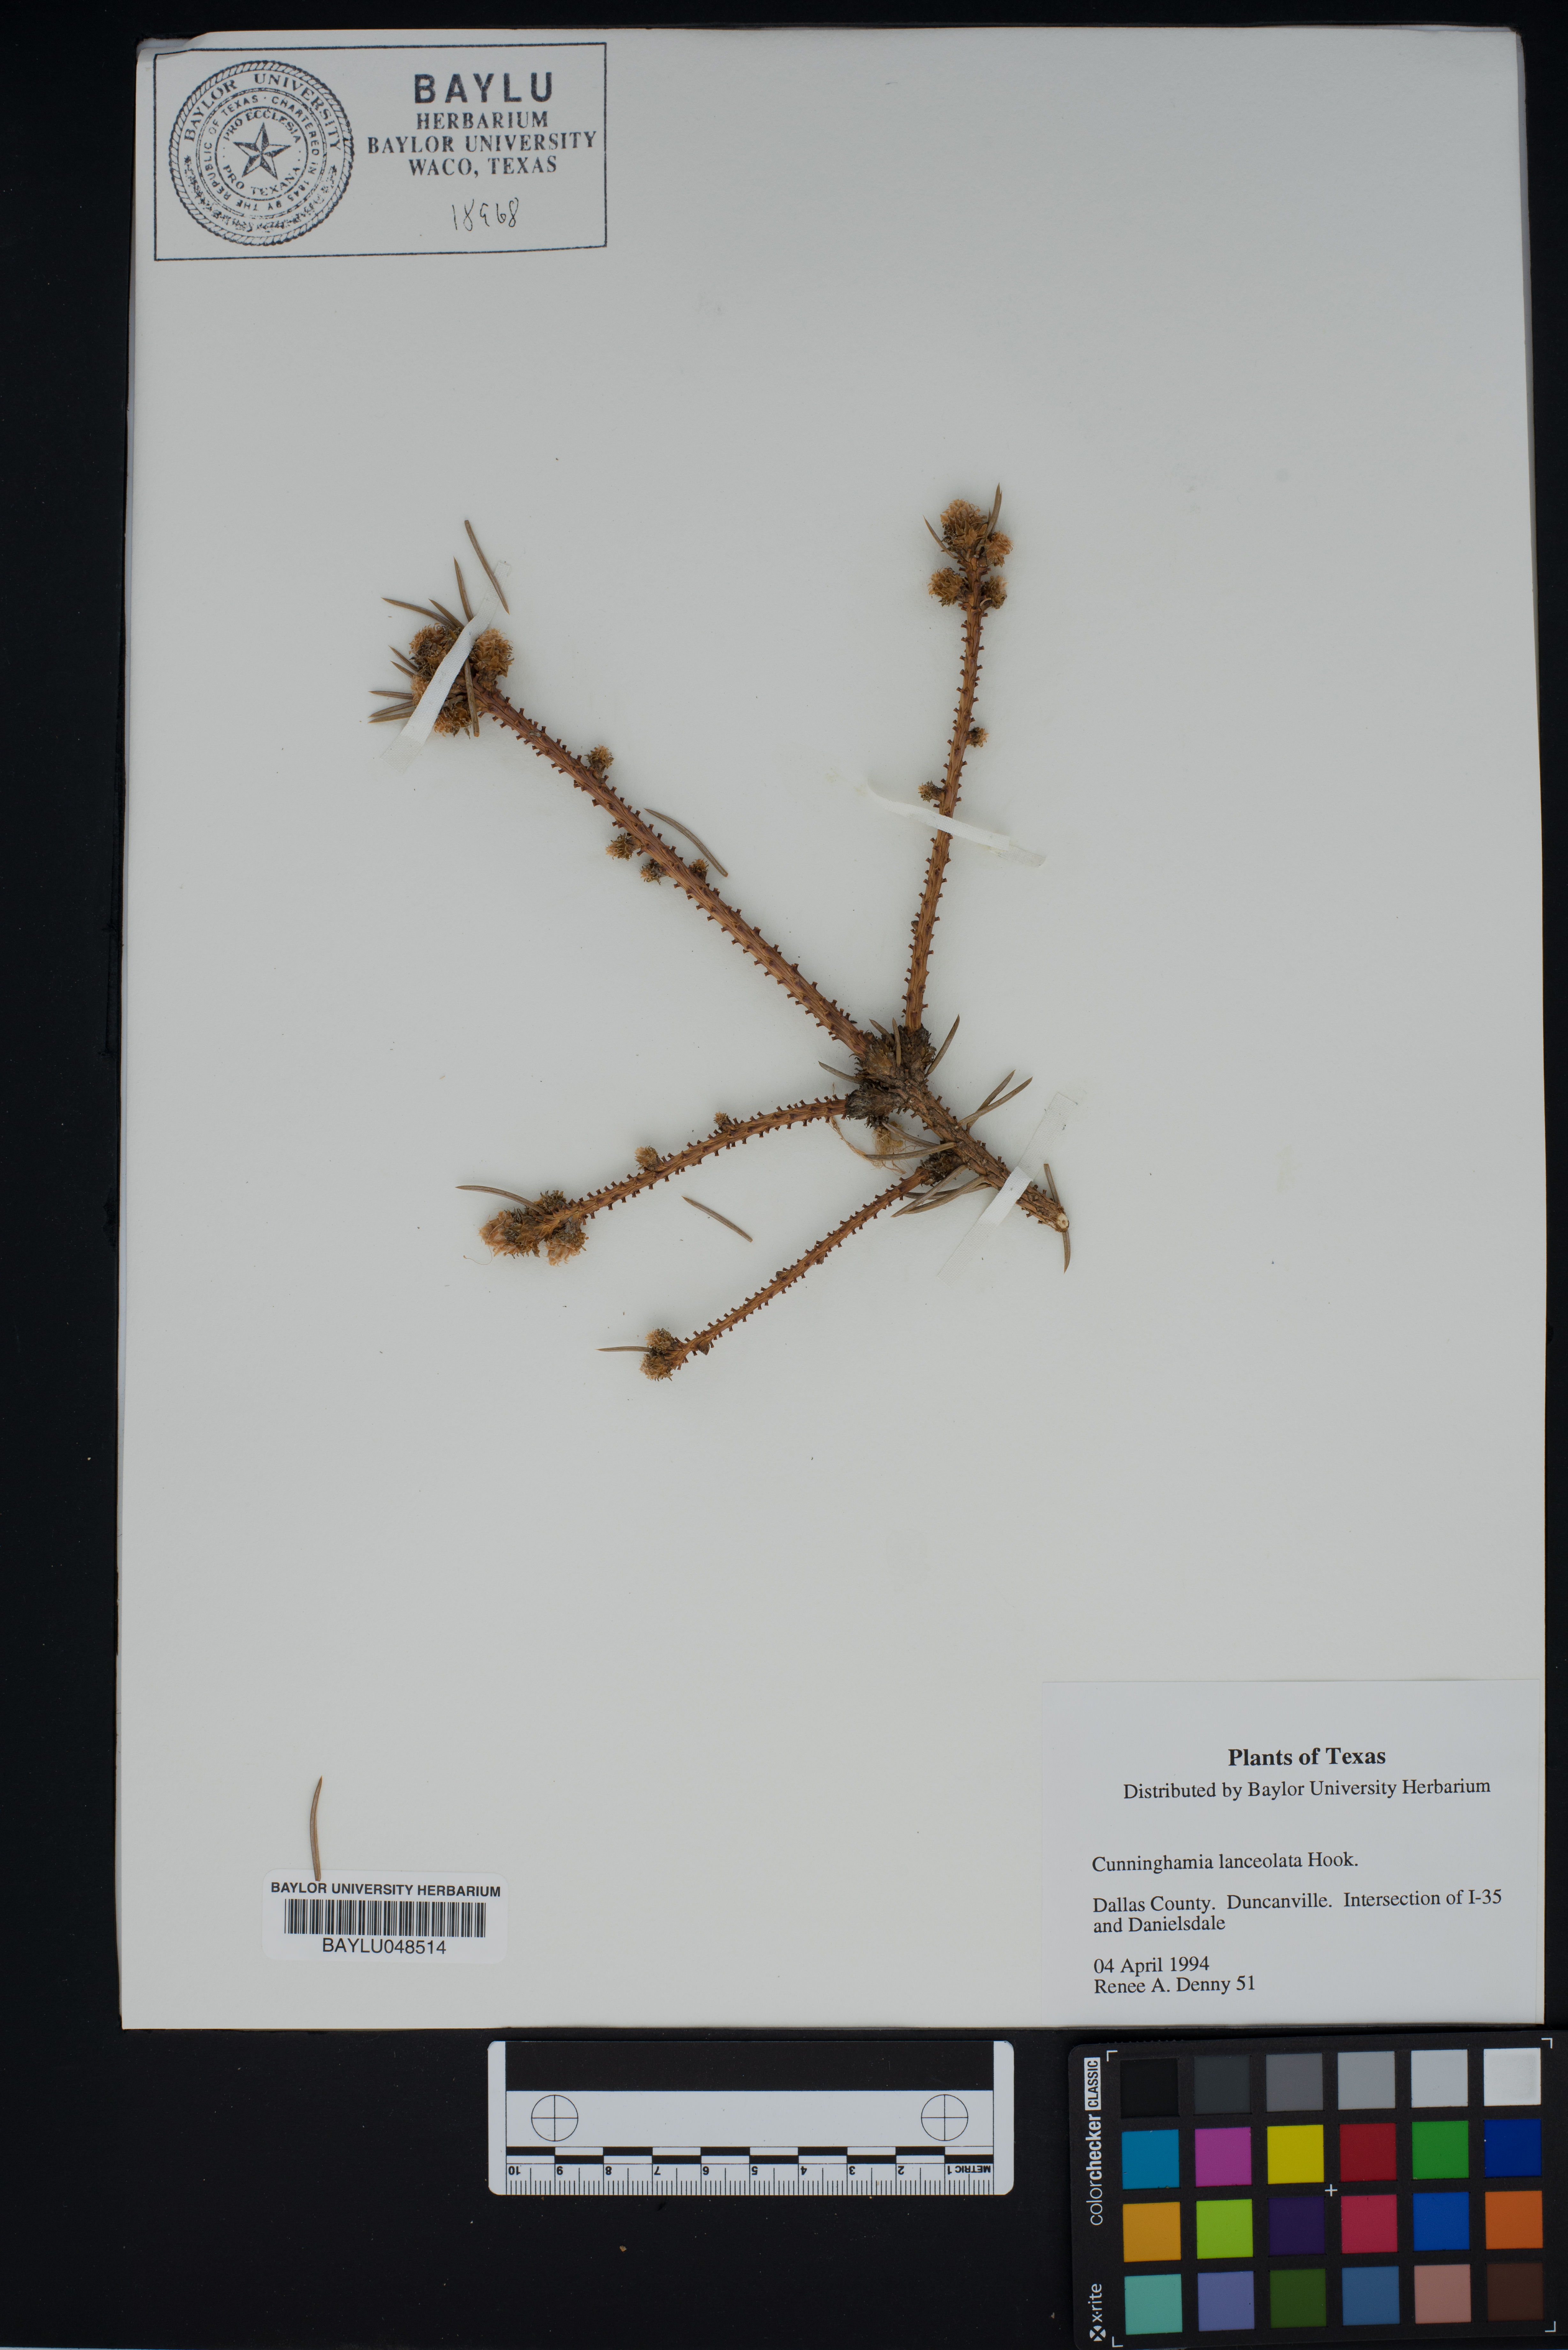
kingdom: Plantae
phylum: Tracheophyta
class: Pinopsida
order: Pinales
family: Cupressaceae
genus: Cunninghamia
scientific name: Cunninghamia lanceolata
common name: Chinese fir
